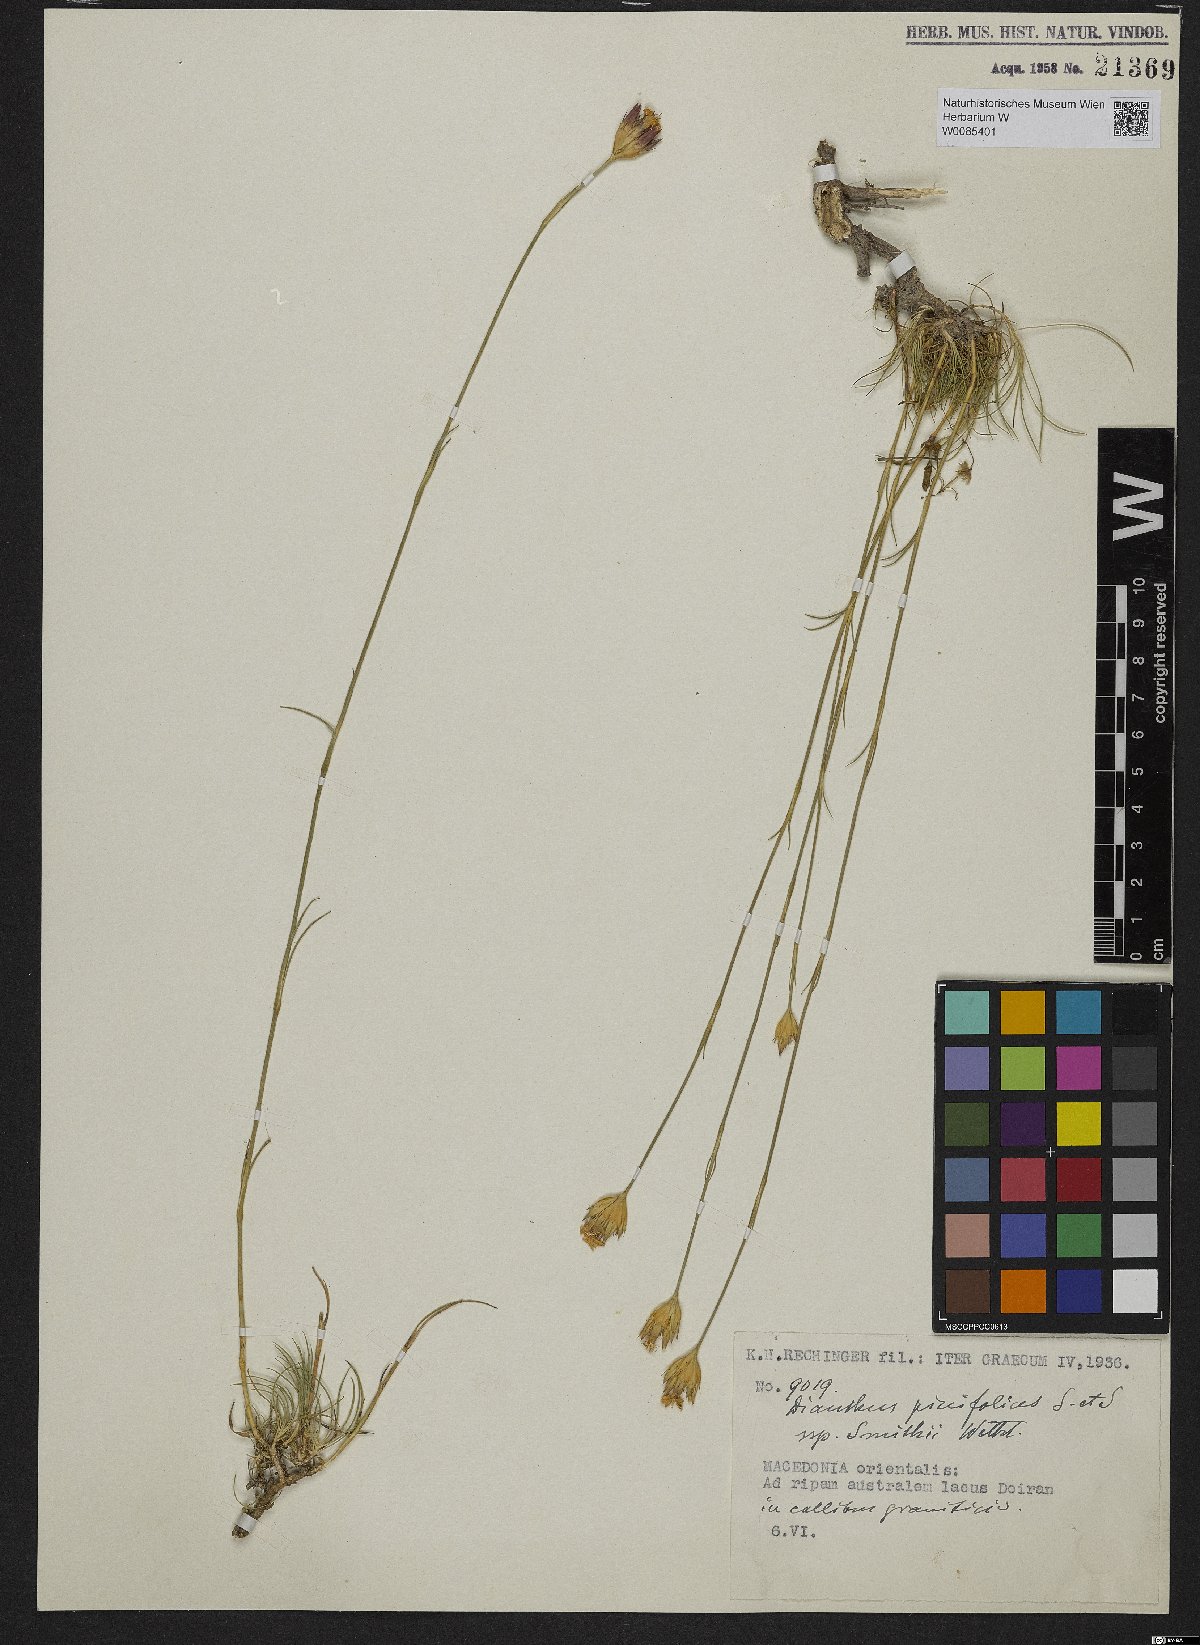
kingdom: Plantae
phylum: Tracheophyta
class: Magnoliopsida
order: Caryophyllales
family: Caryophyllaceae
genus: Dianthus
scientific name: Dianthus pinifolius
